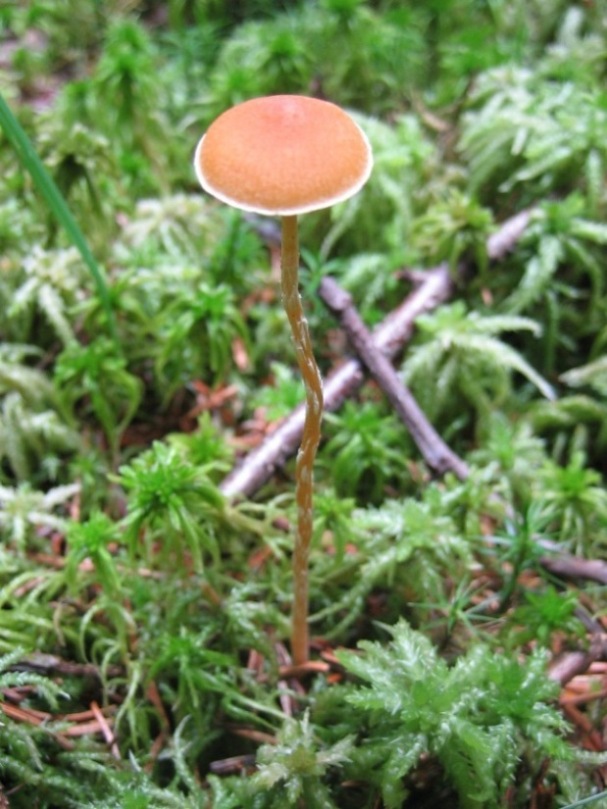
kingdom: Fungi
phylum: Basidiomycota
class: Agaricomycetes
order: Agaricales
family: Hymenogastraceae
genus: Galerina
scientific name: Galerina paludosa
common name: mose-hjelmhat
